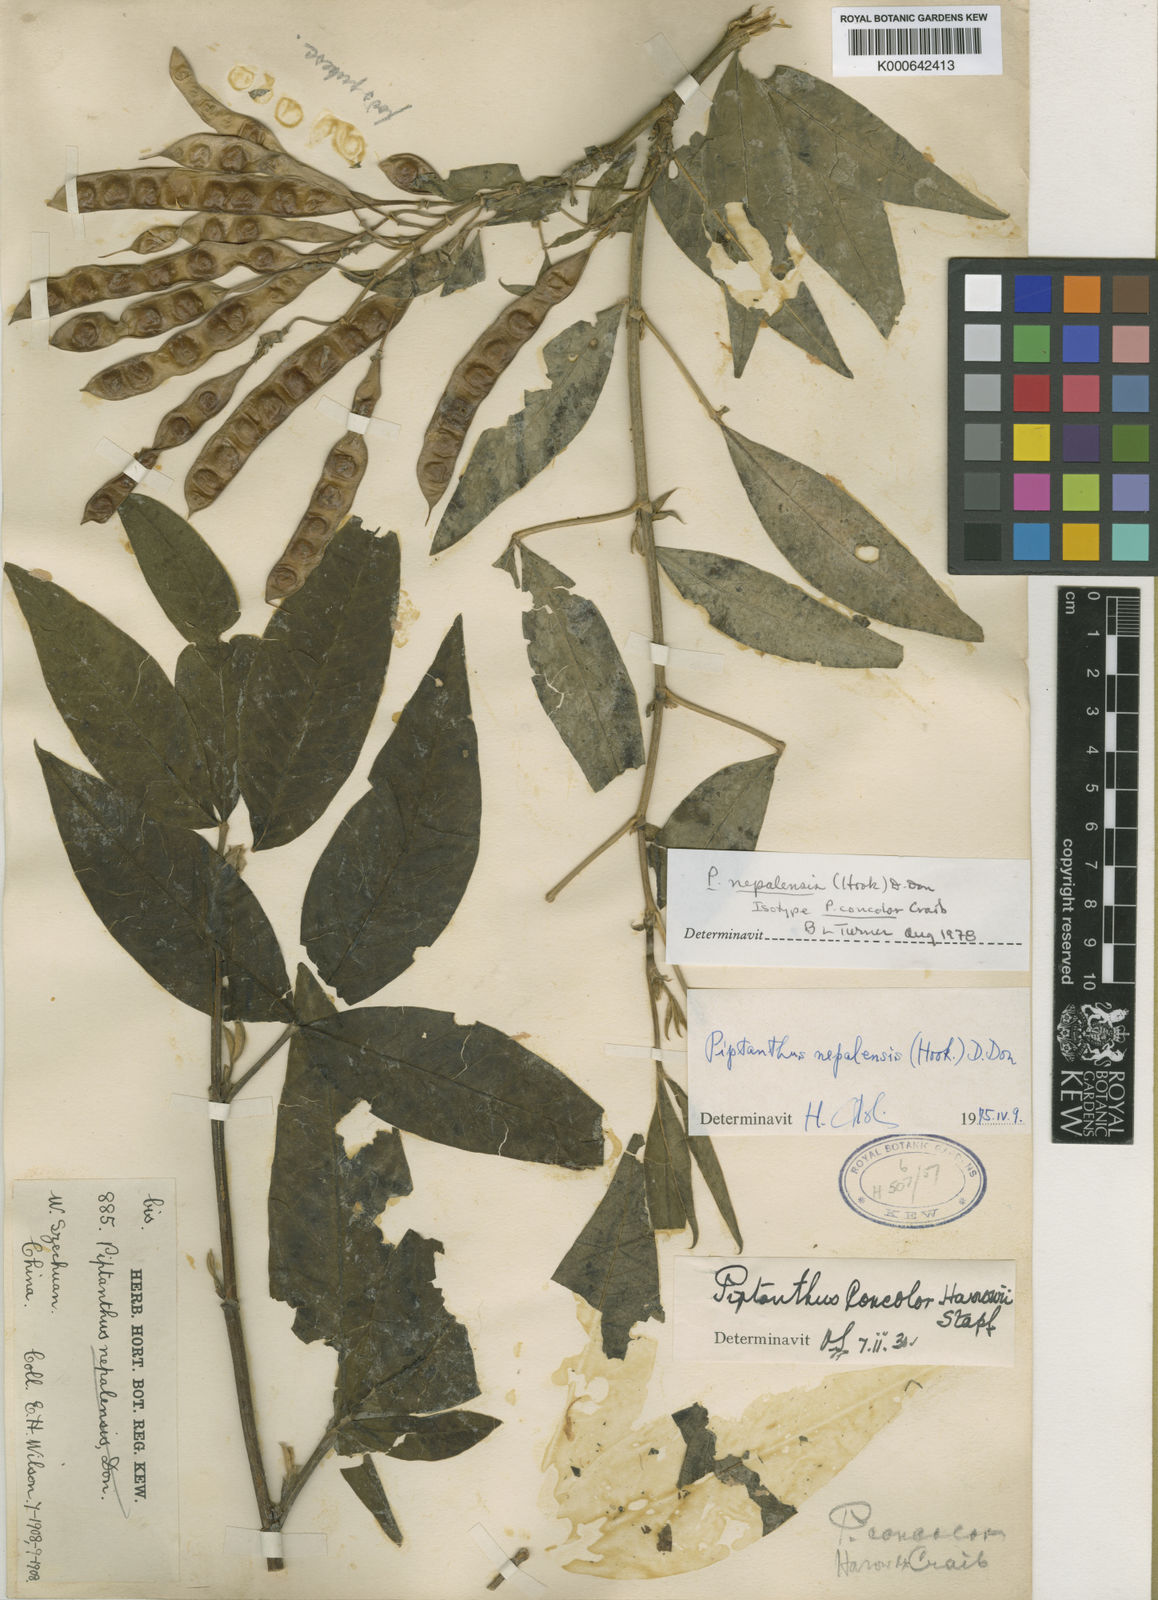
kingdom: Plantae
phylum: Tracheophyta
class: Magnoliopsida
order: Fabales
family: Fabaceae
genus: Piptanthus
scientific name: Piptanthus
